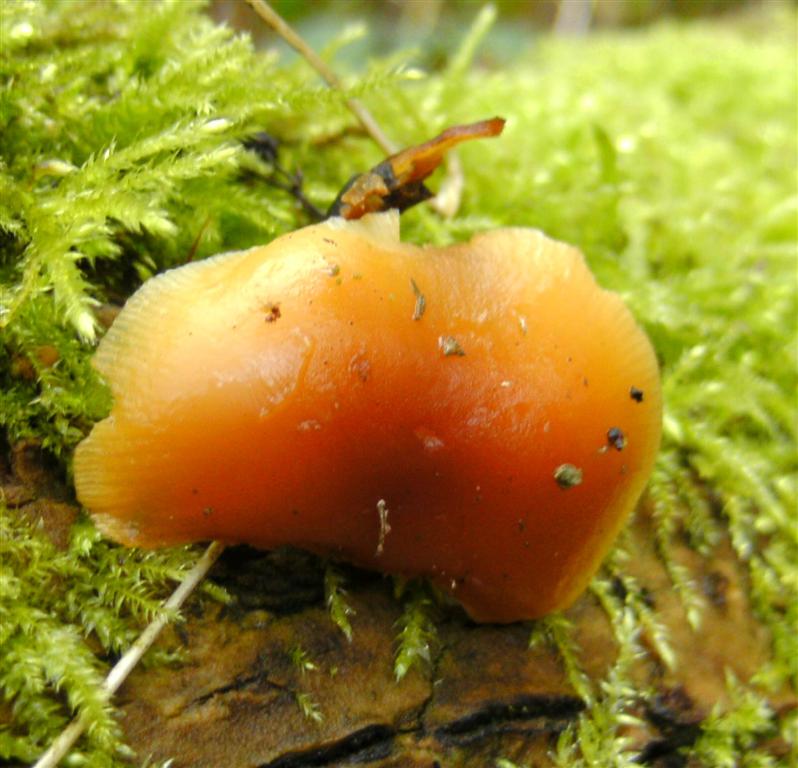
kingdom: Fungi
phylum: Basidiomycota
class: Agaricomycetes
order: Agaricales
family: Physalacriaceae
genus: Flammulina
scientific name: Flammulina velutipes
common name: gul fløjlsfod
